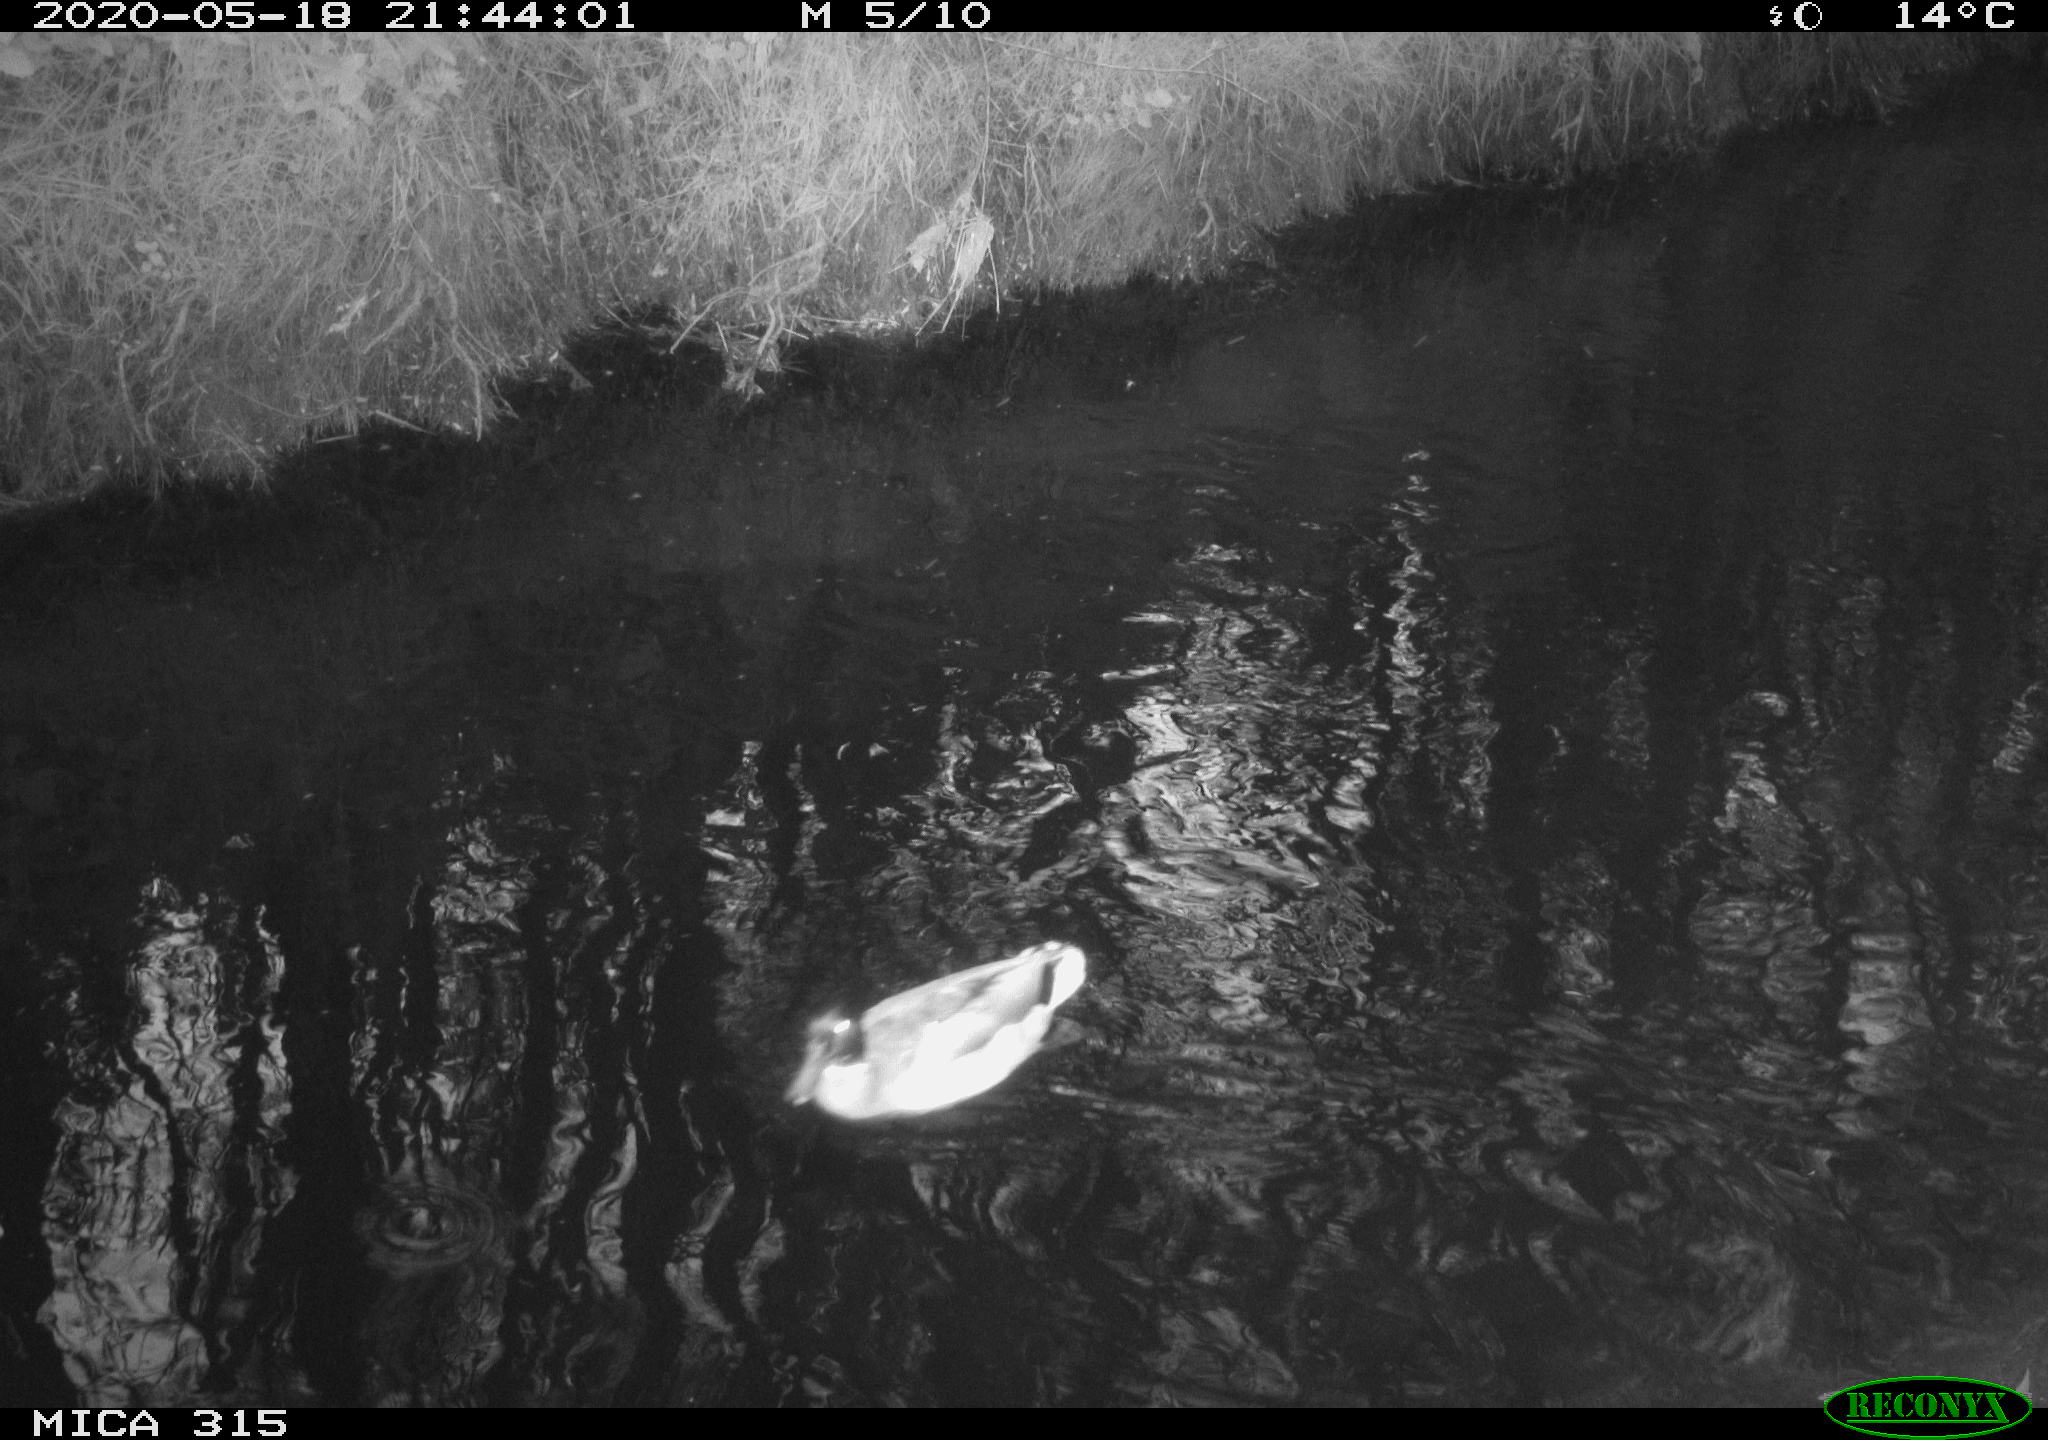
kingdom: Animalia
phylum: Chordata
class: Aves
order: Anseriformes
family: Anatidae
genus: Anas
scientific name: Anas platyrhynchos
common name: Mallard
